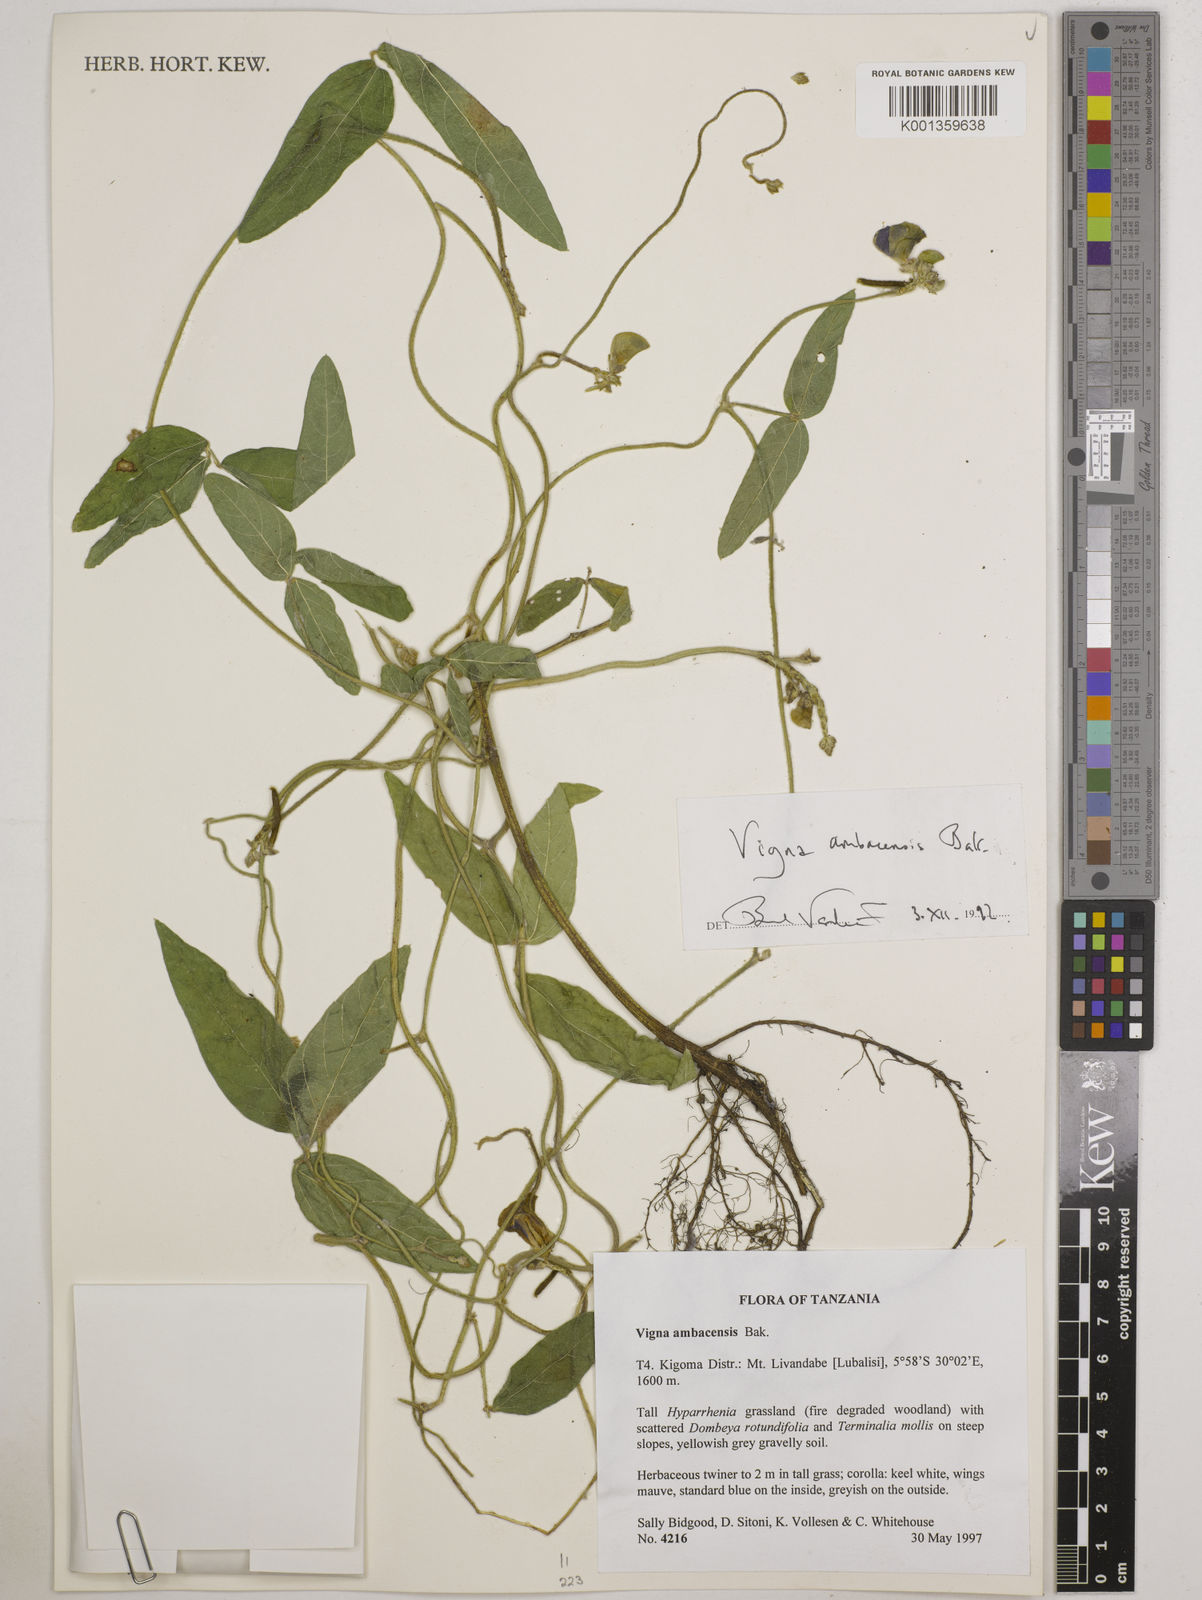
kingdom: Plantae
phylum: Tracheophyta
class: Magnoliopsida
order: Fabales
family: Fabaceae
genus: Vigna
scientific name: Vigna ambacensis
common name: Tsarkiyan zomo
